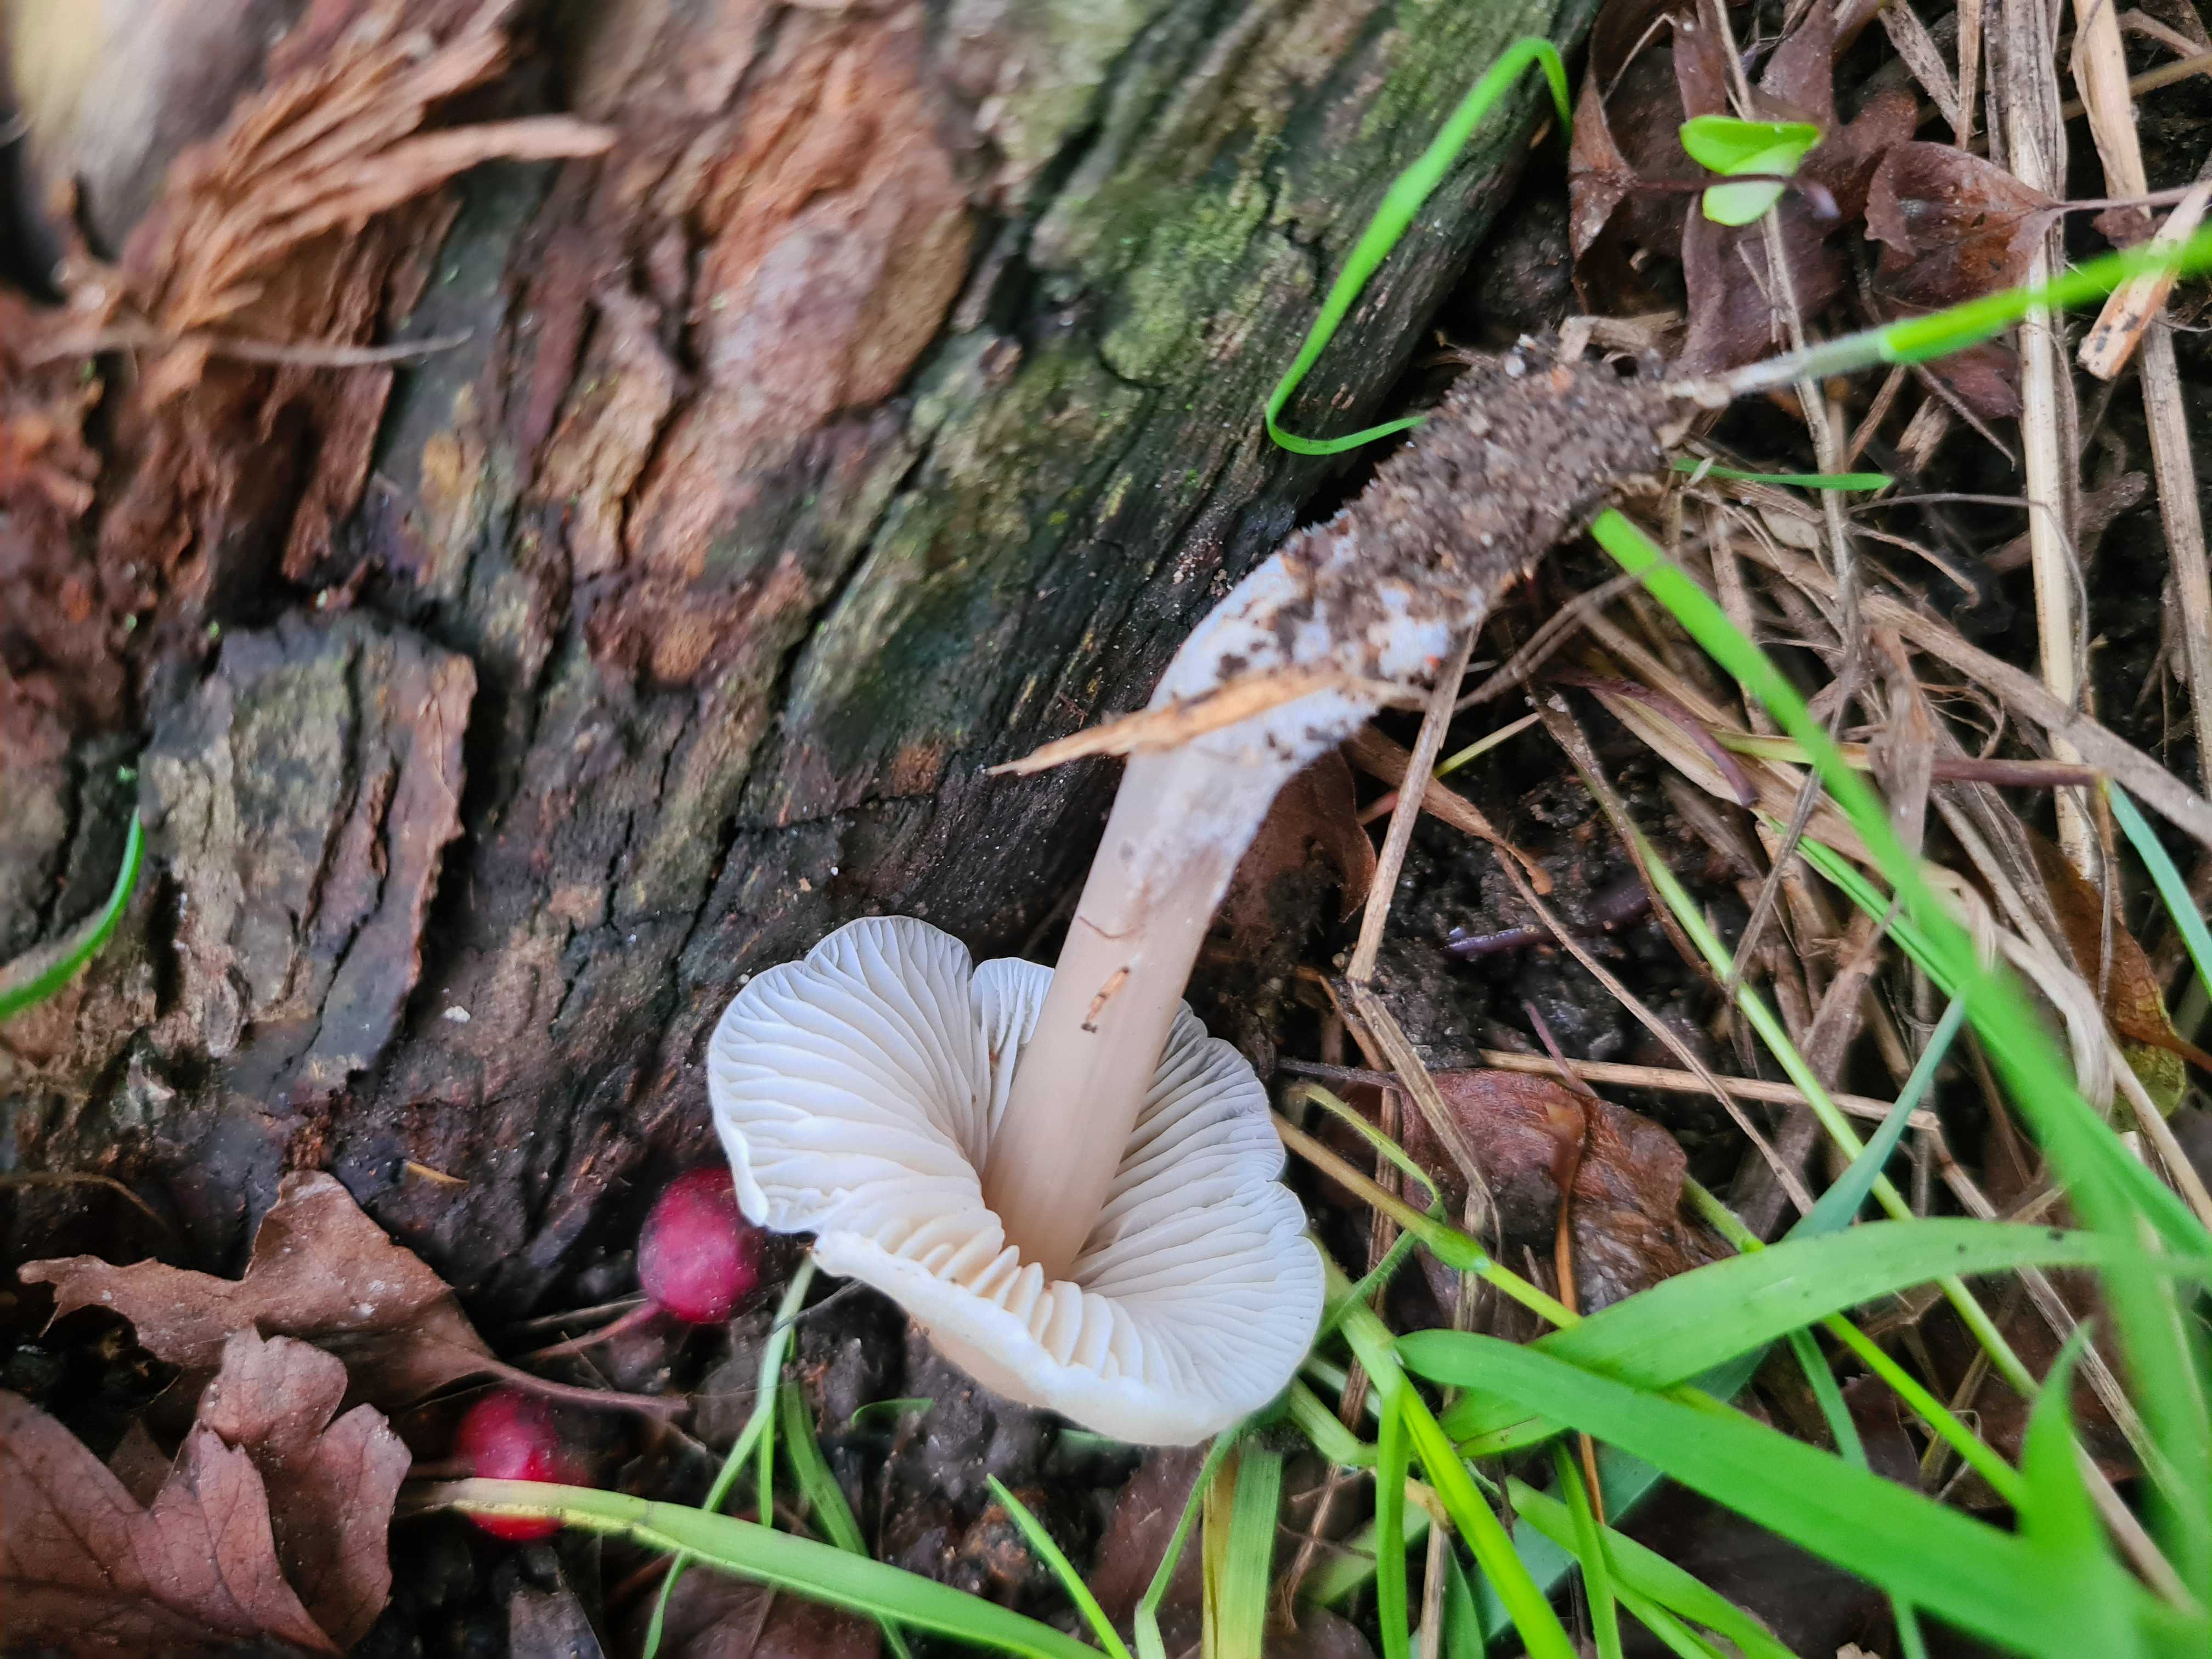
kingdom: Fungi
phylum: Basidiomycota
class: Agaricomycetes
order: Agaricales
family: Mycenaceae
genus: Mycena
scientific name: Mycena galericulata
